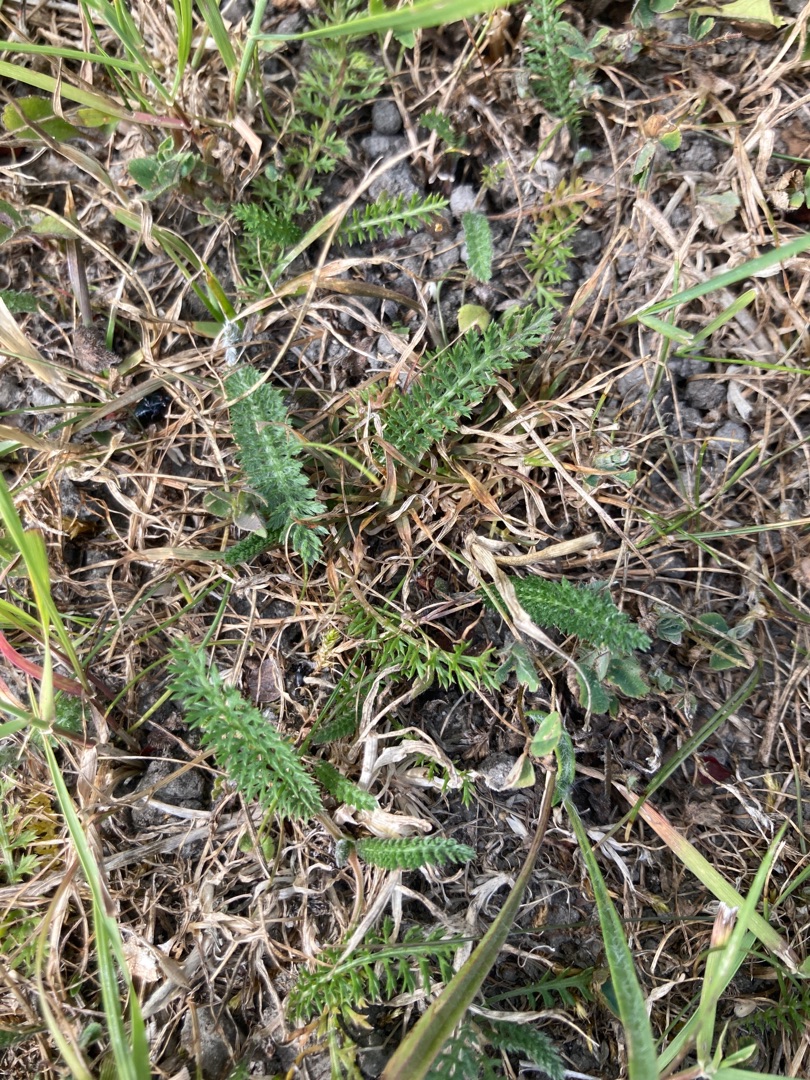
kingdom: Plantae
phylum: Tracheophyta
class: Magnoliopsida
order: Asterales
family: Asteraceae
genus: Achillea
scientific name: Achillea millefolium
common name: Almindelig røllike
